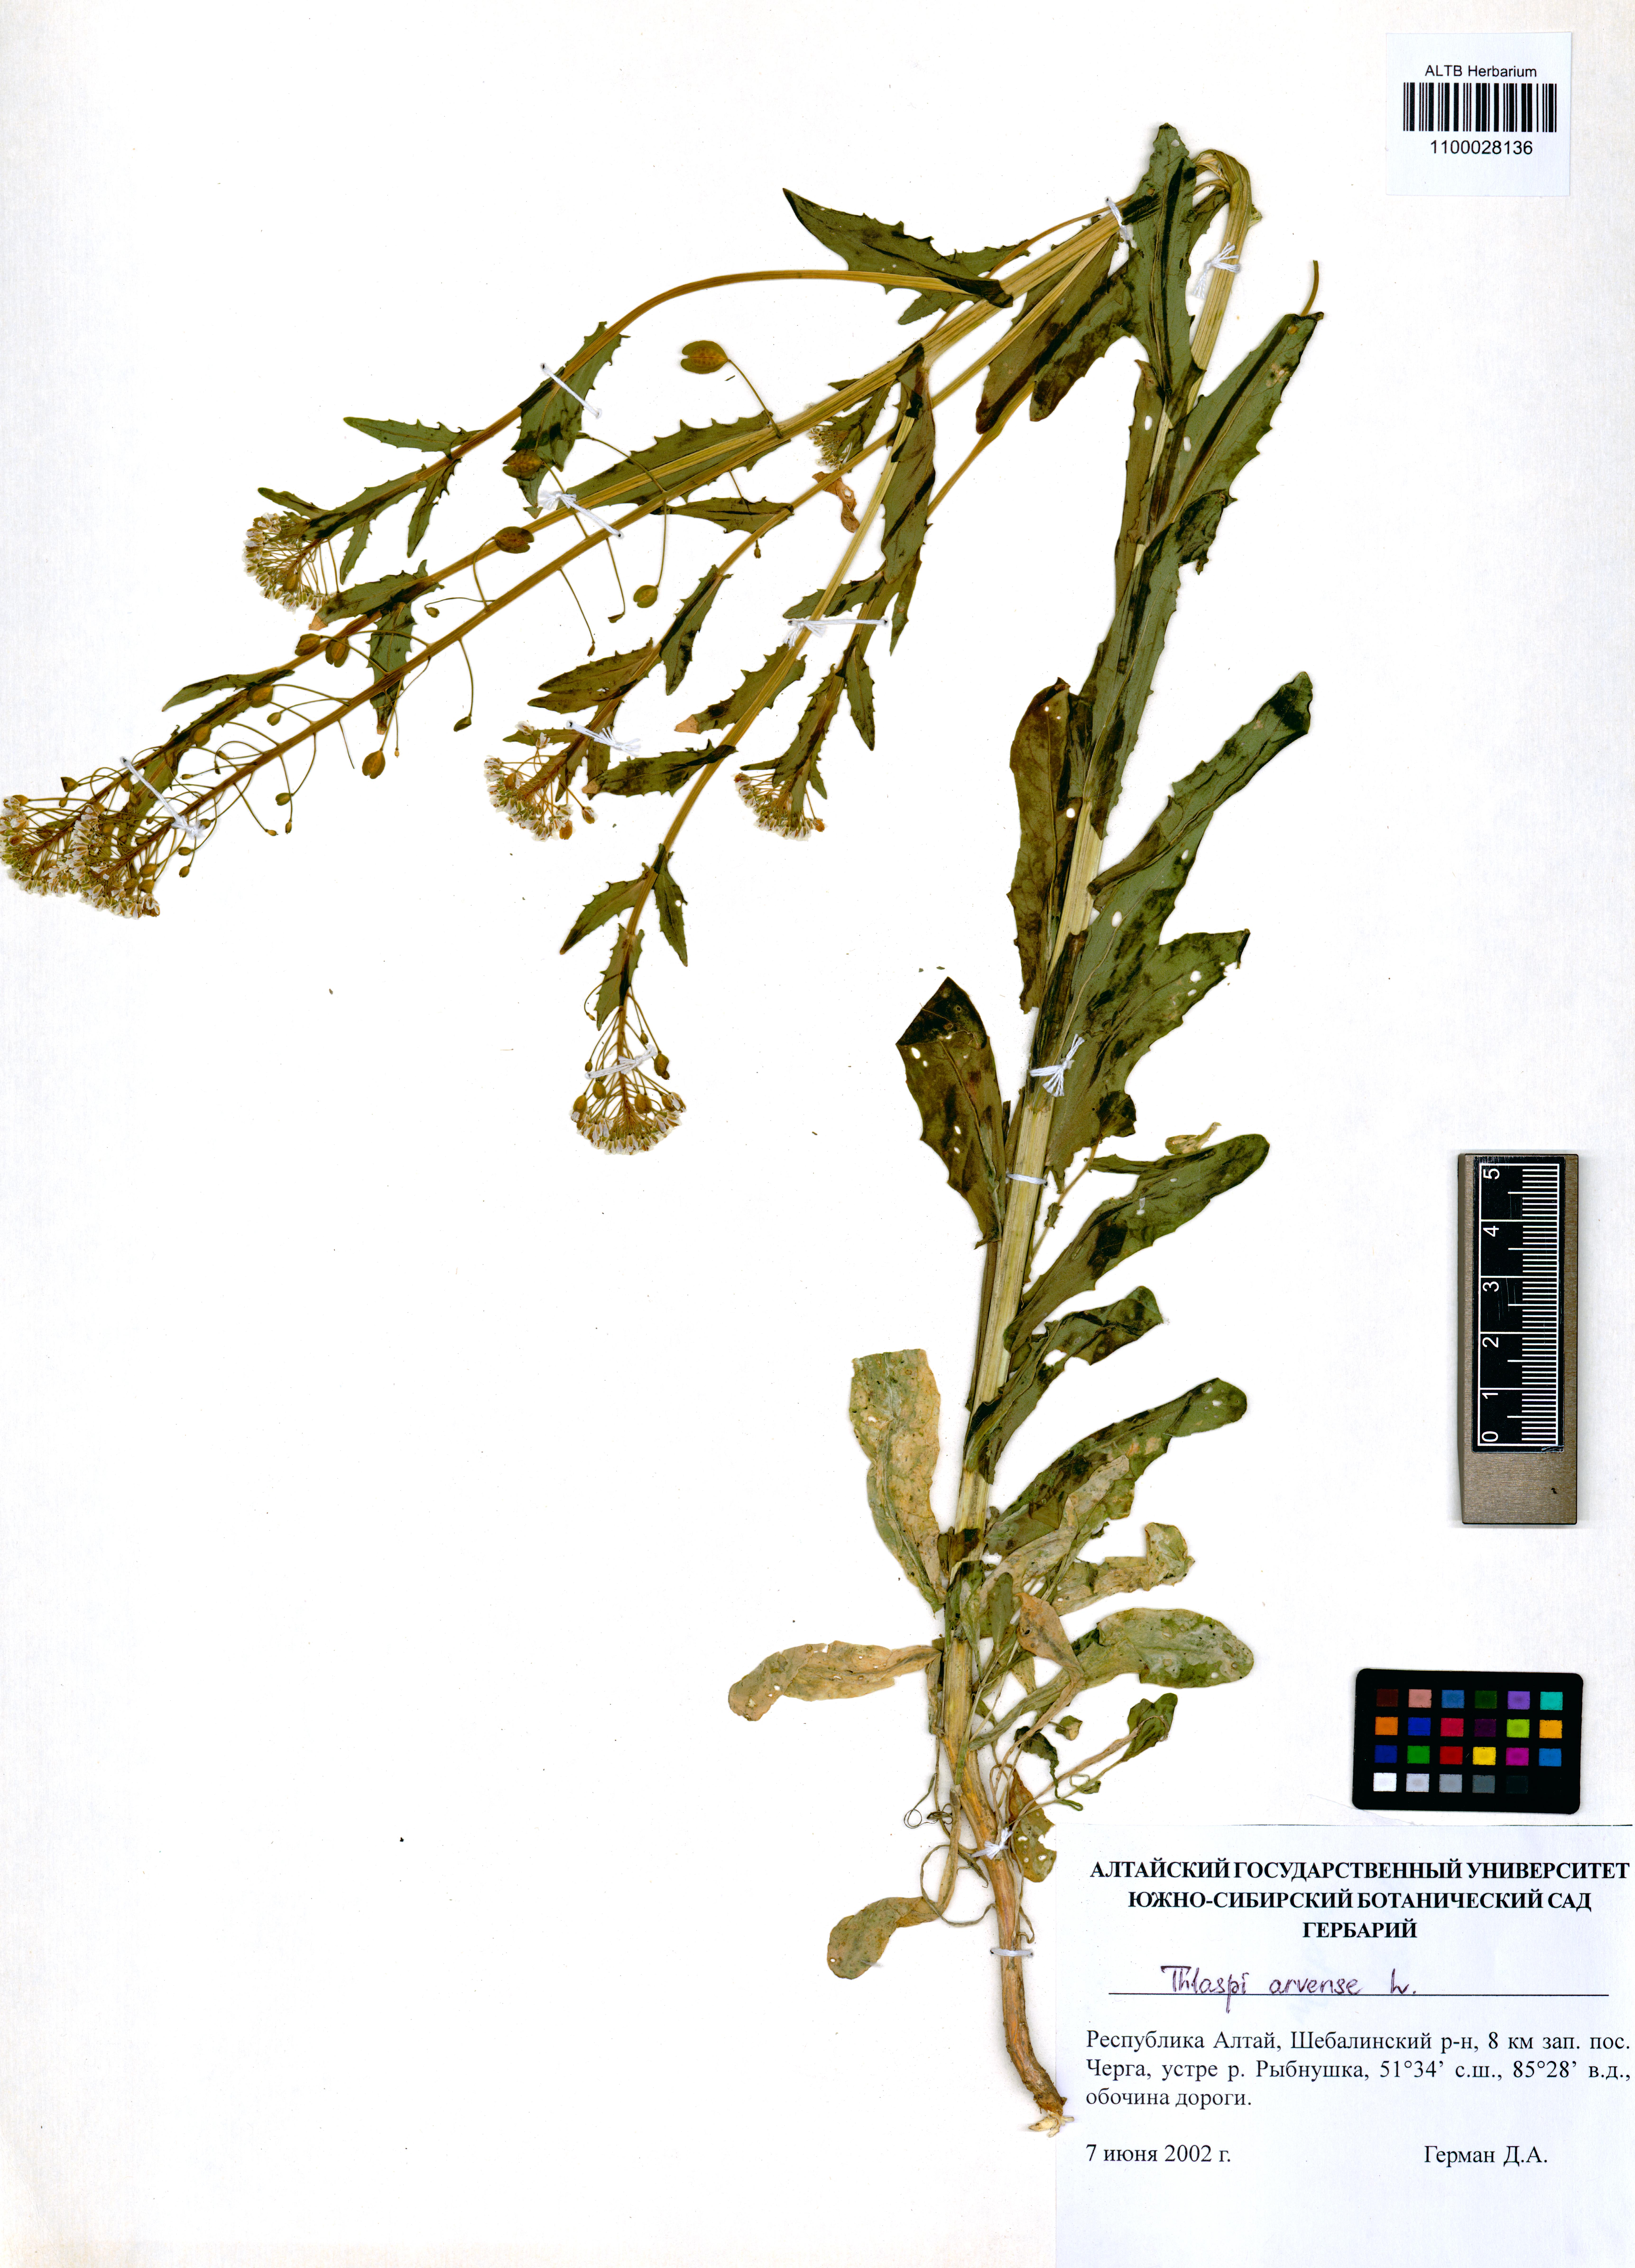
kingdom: Plantae
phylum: Tracheophyta
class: Magnoliopsida
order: Brassicales
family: Brassicaceae
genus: Thlaspi
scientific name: Thlaspi arvense
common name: Field pennycress
